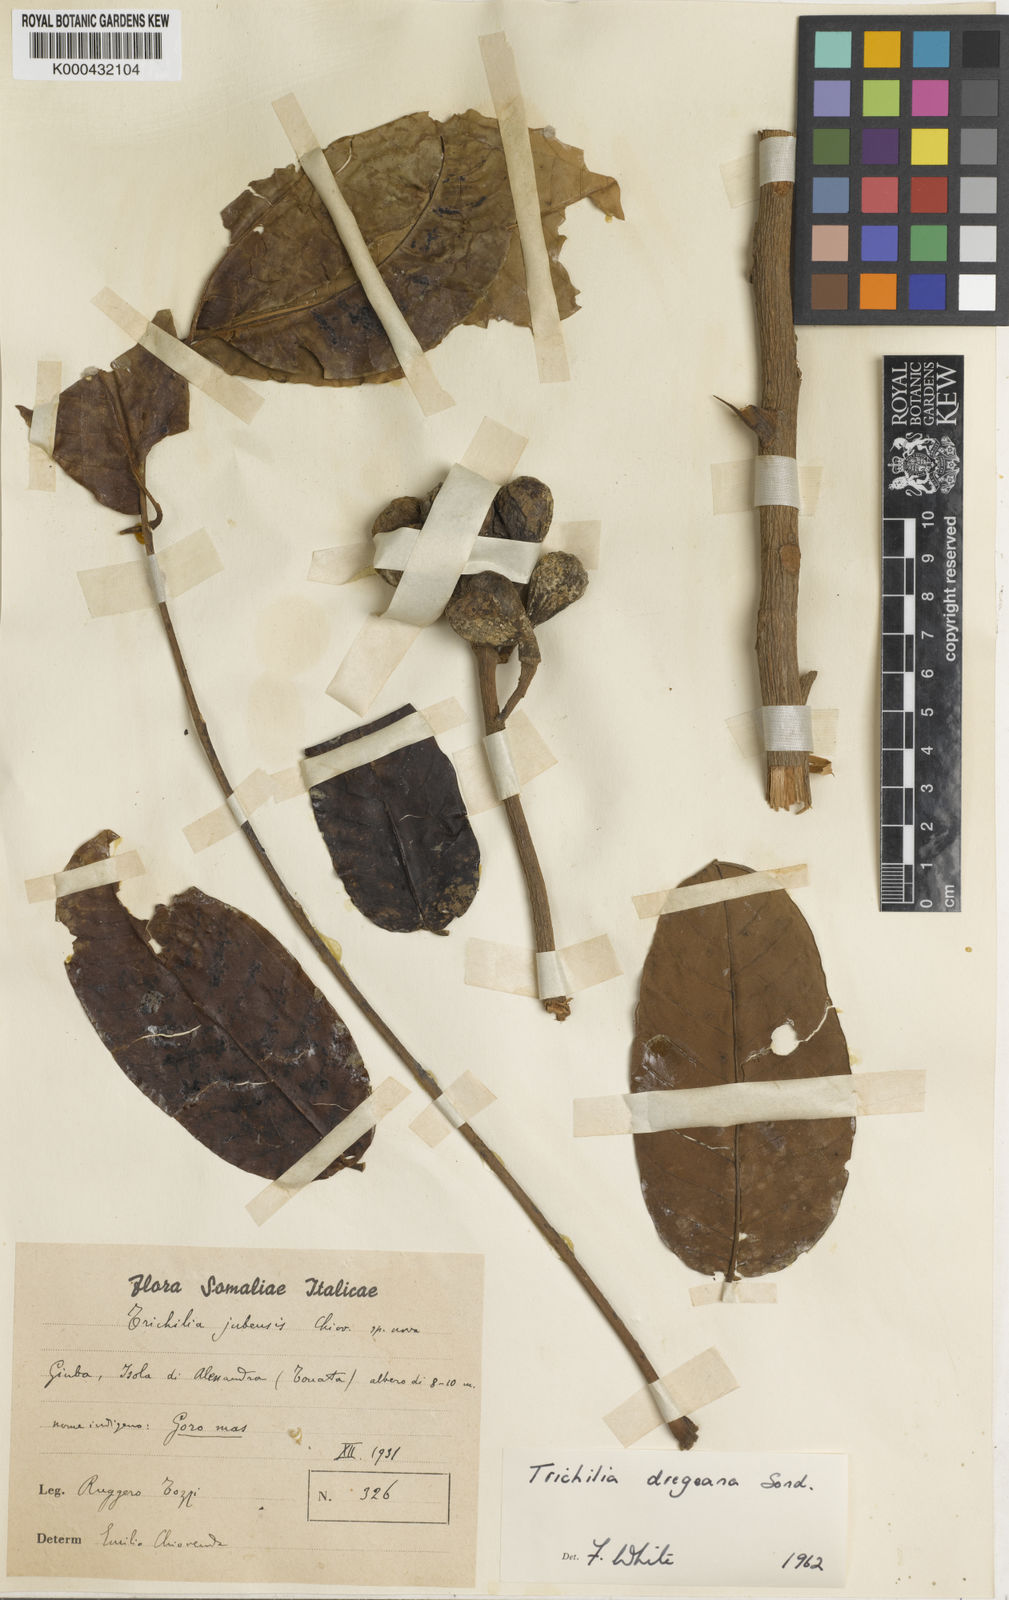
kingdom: Plantae
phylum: Tracheophyta
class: Magnoliopsida
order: Sapindales
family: Meliaceae
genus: Trichilia
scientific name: Trichilia emetica
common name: Christmas-bells
